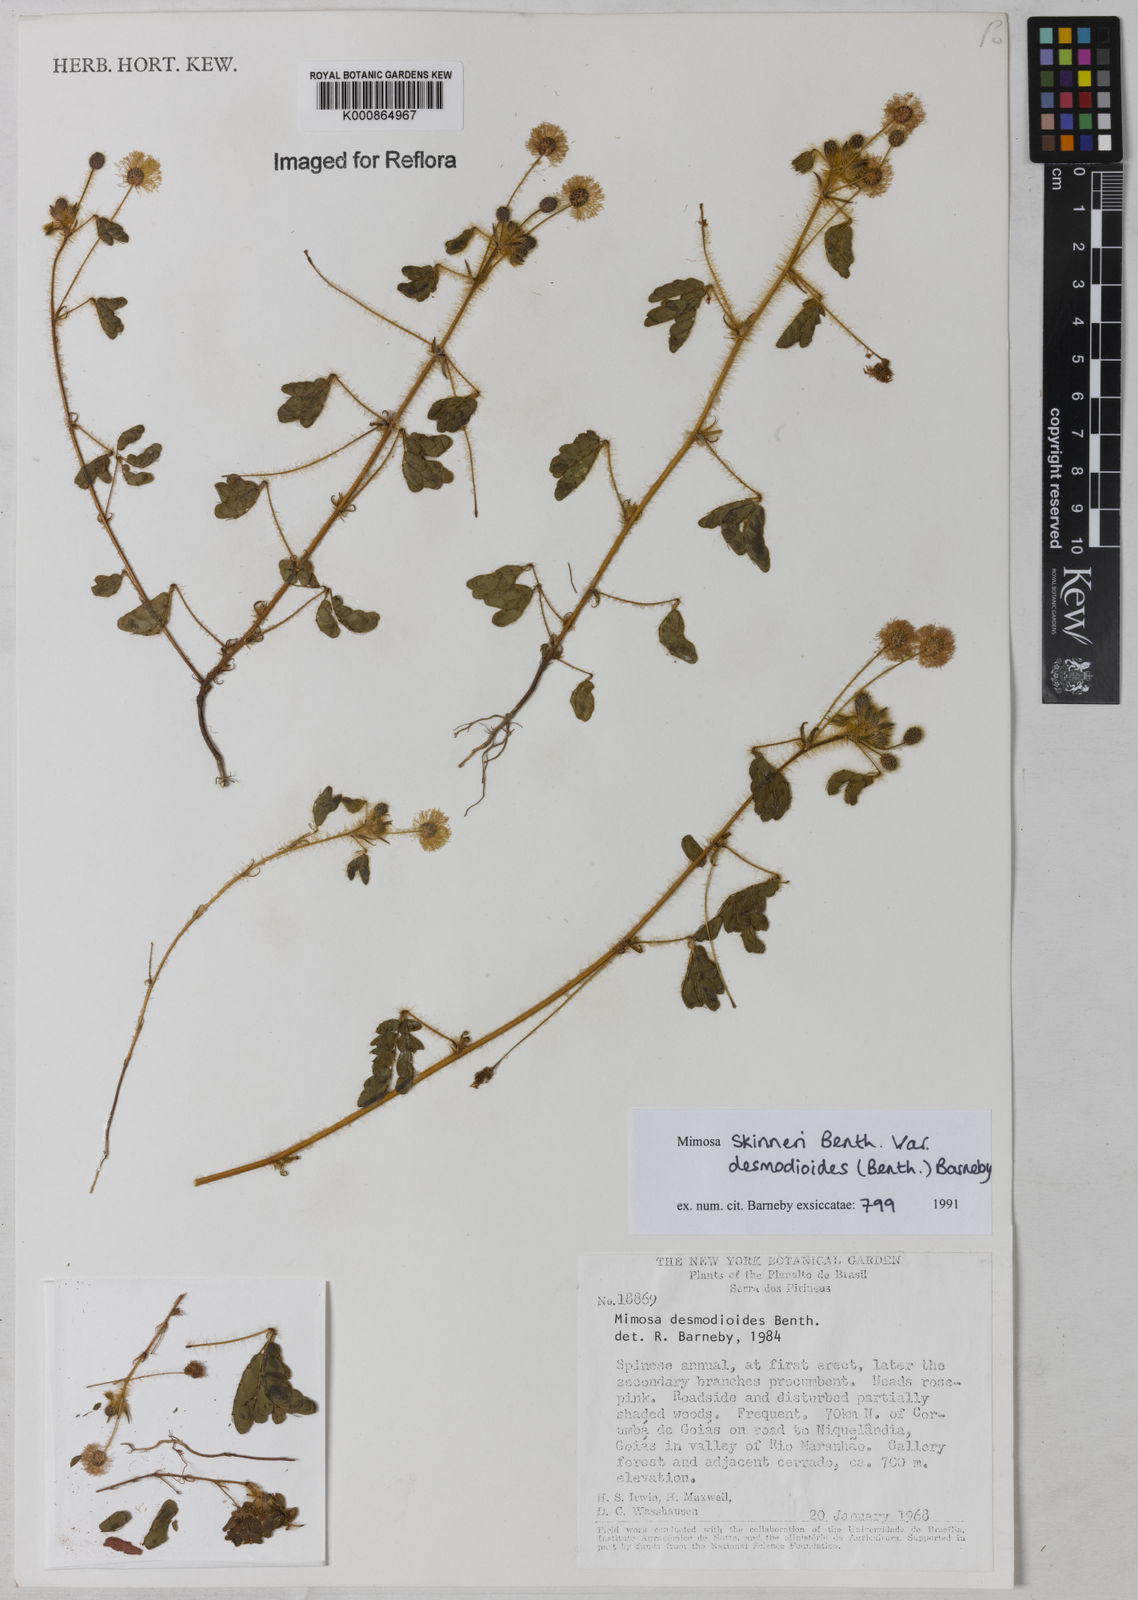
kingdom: Plantae
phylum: Tracheophyta
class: Magnoliopsida
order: Fabales
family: Fabaceae
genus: Mimosa
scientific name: Mimosa skinneri
